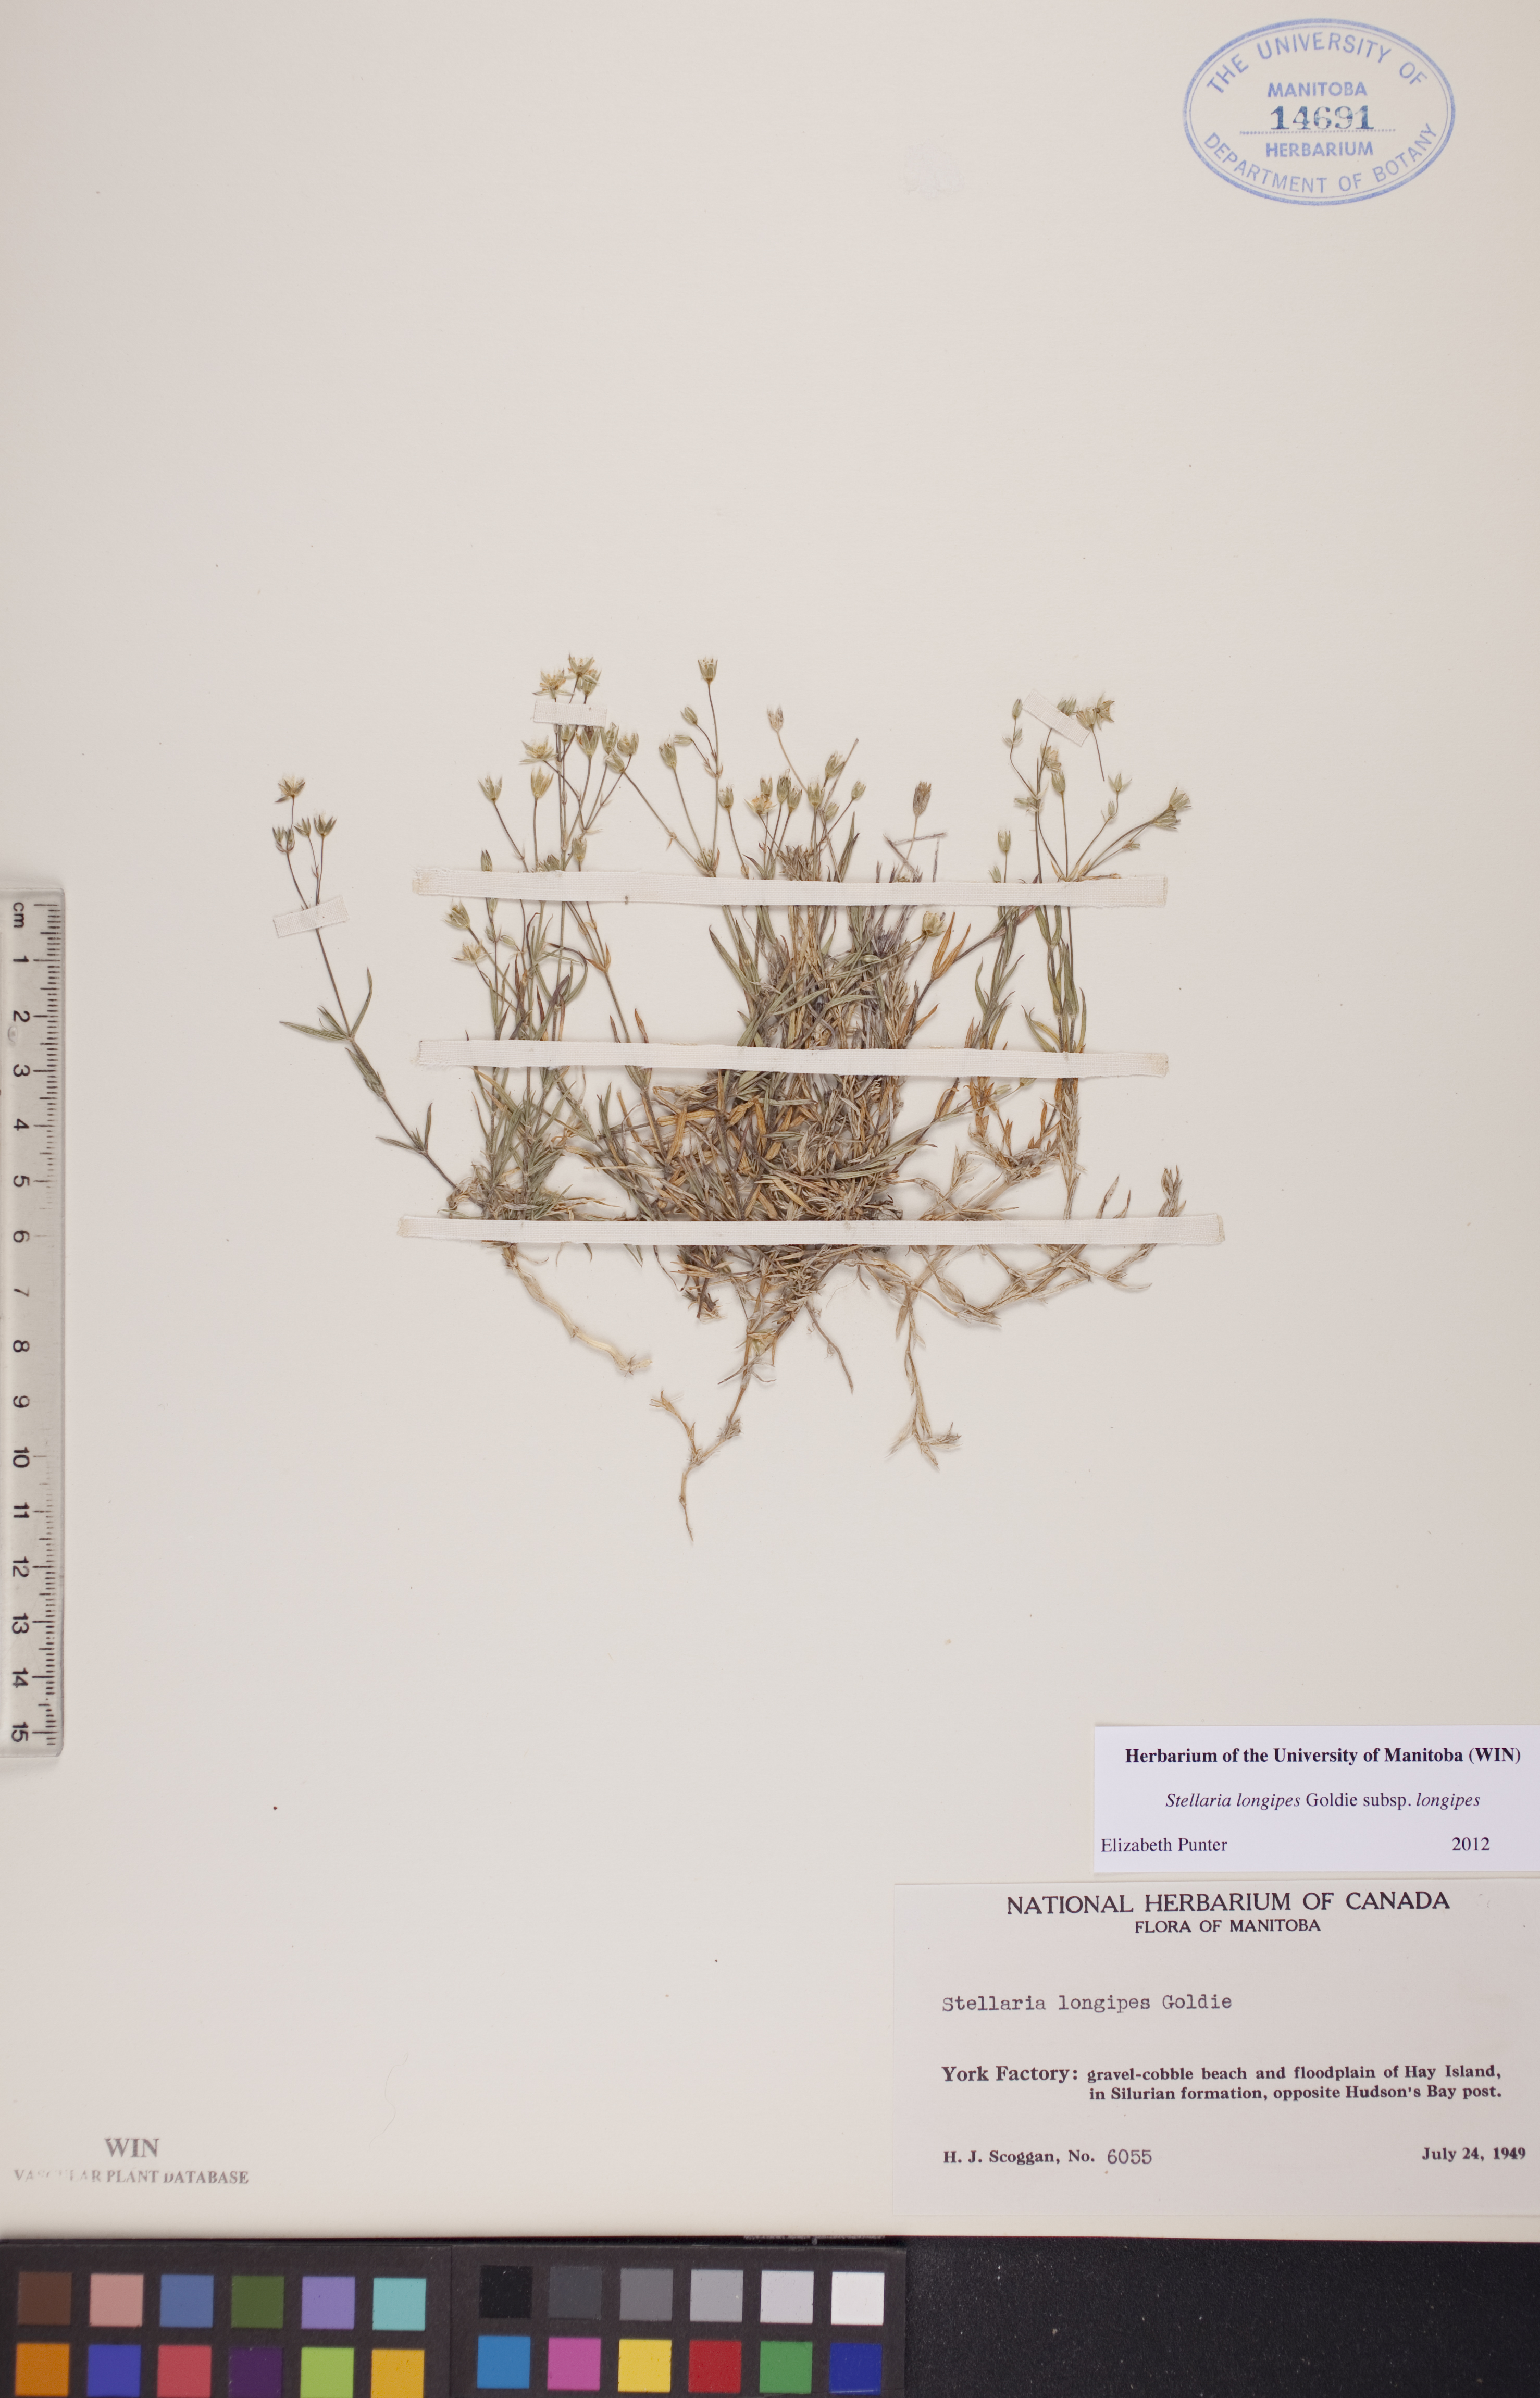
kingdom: Plantae
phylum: Tracheophyta
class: Magnoliopsida
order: Caryophyllales
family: Caryophyllaceae
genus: Stellaria
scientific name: Stellaria longipes
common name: Goldie's starwort
